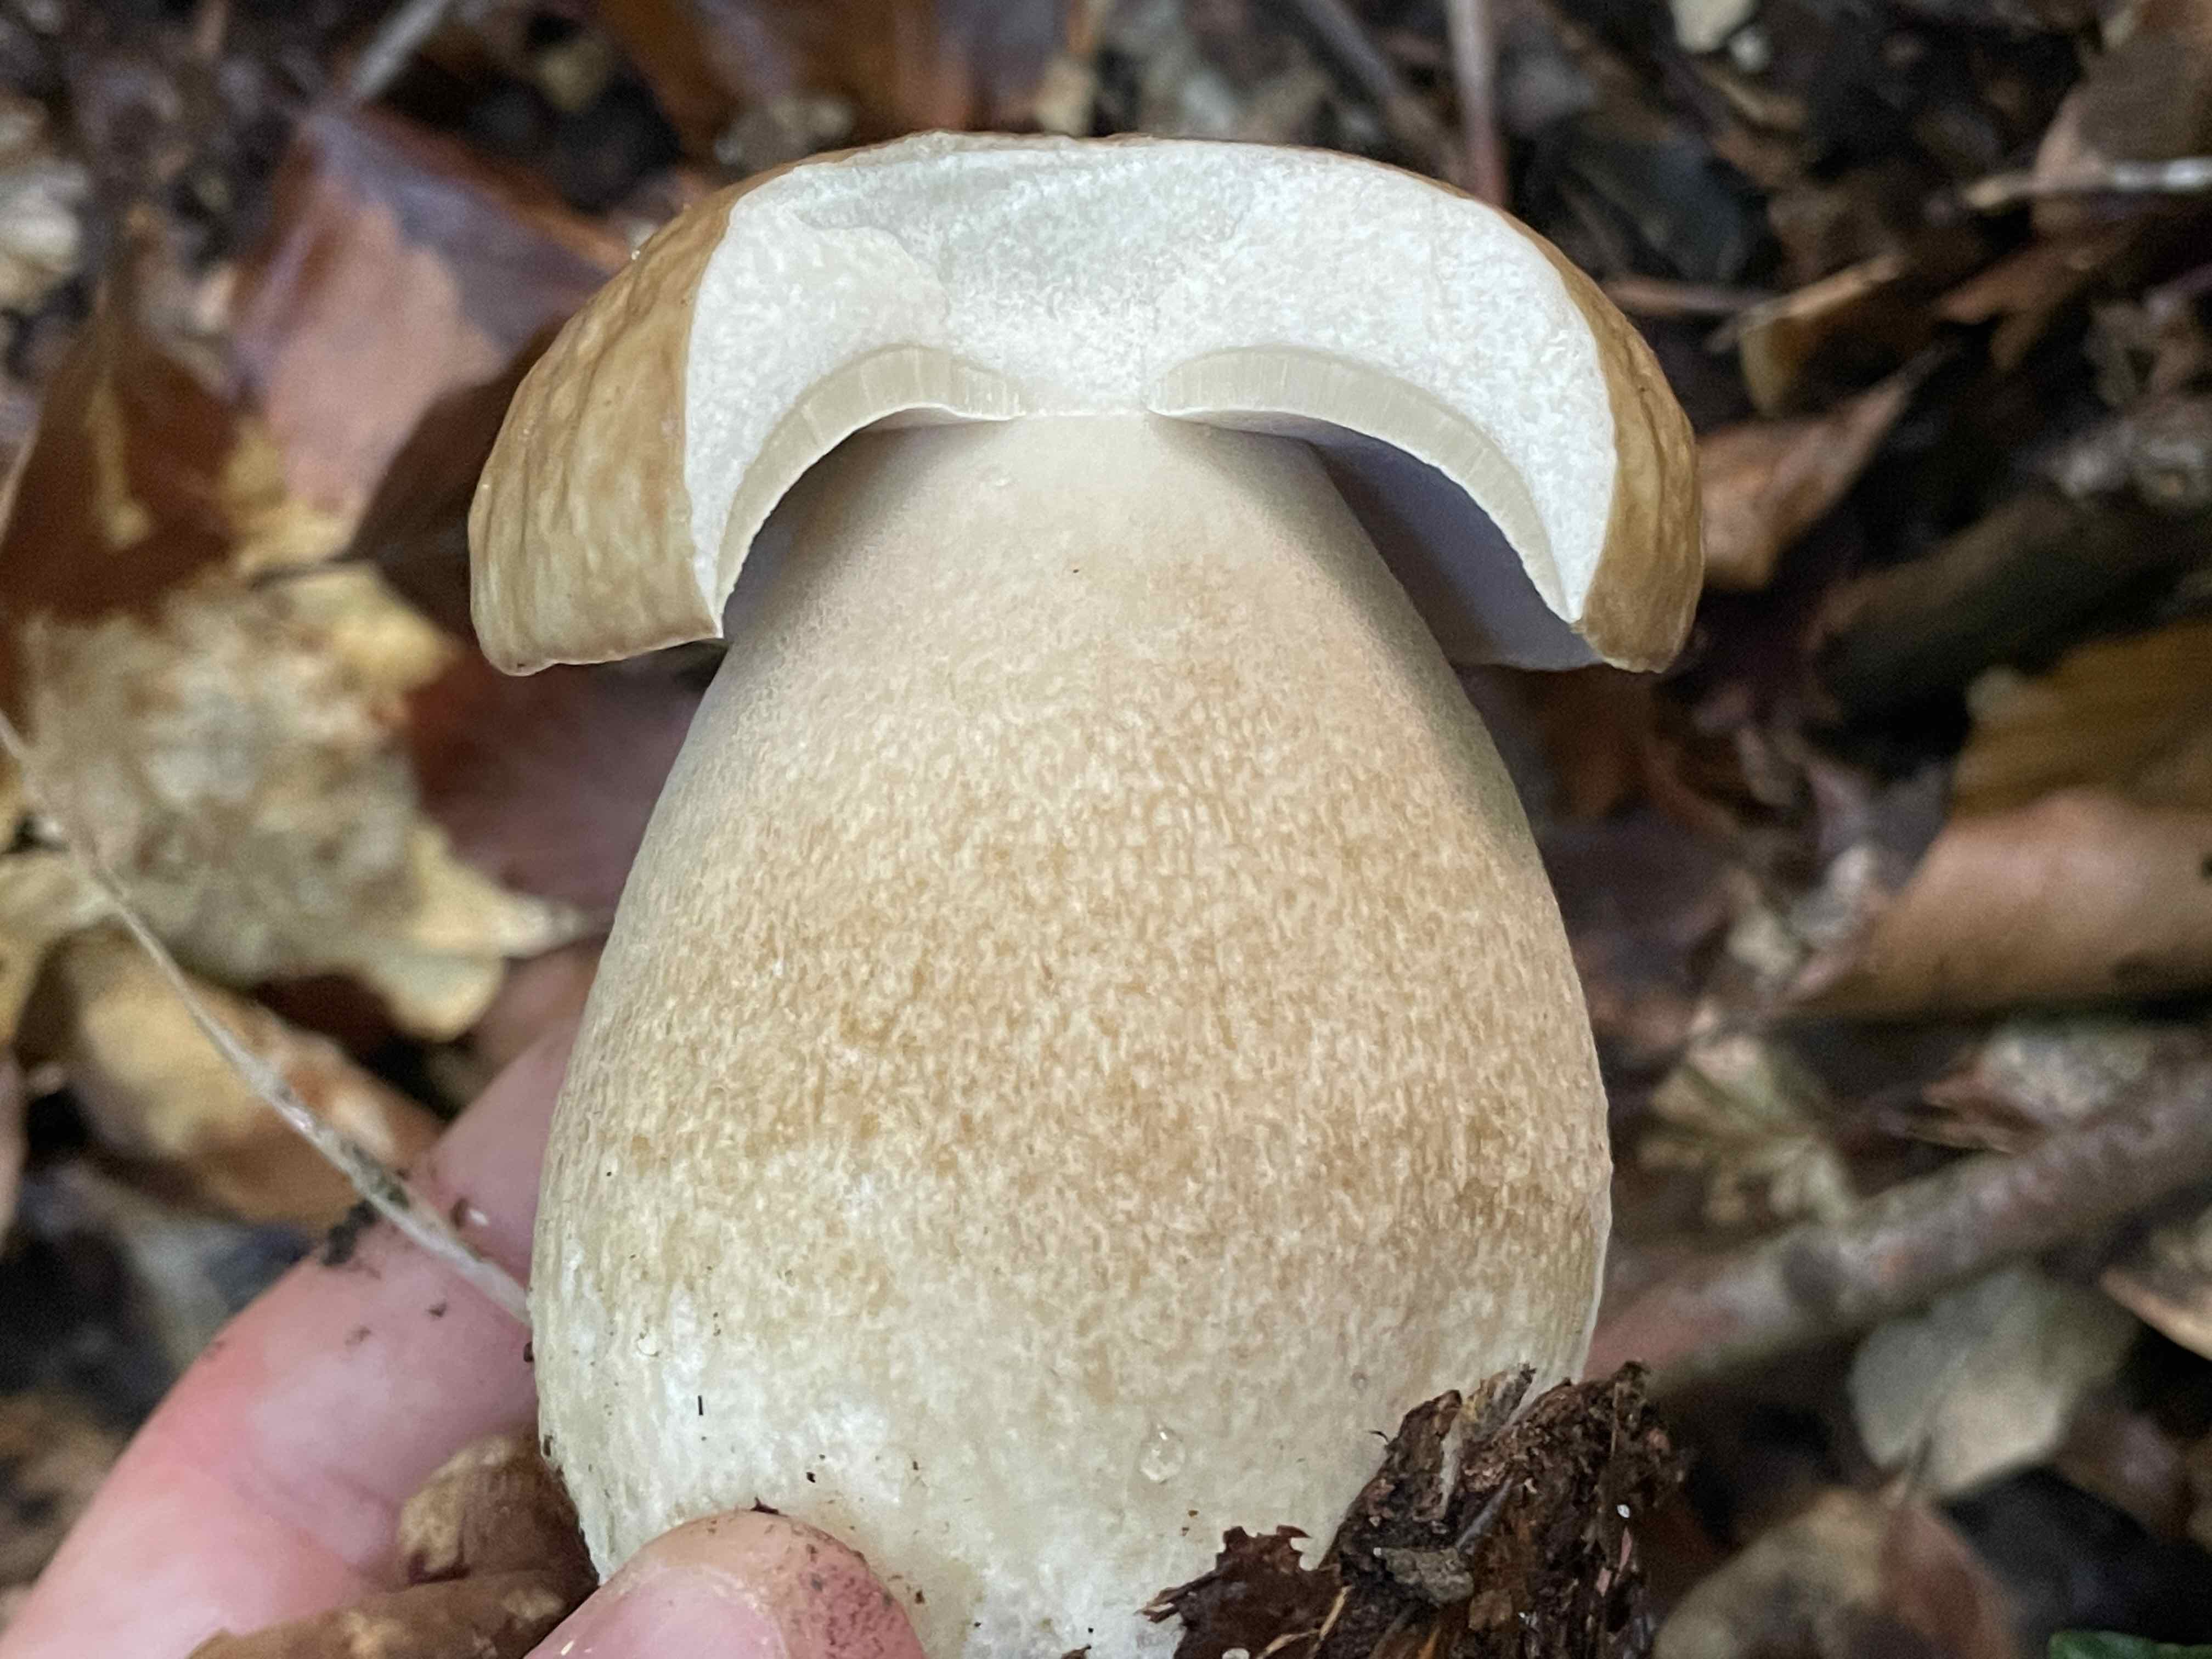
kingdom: Fungi
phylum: Basidiomycota
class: Agaricomycetes
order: Boletales
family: Boletaceae
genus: Boletus
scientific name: Boletus edulis
